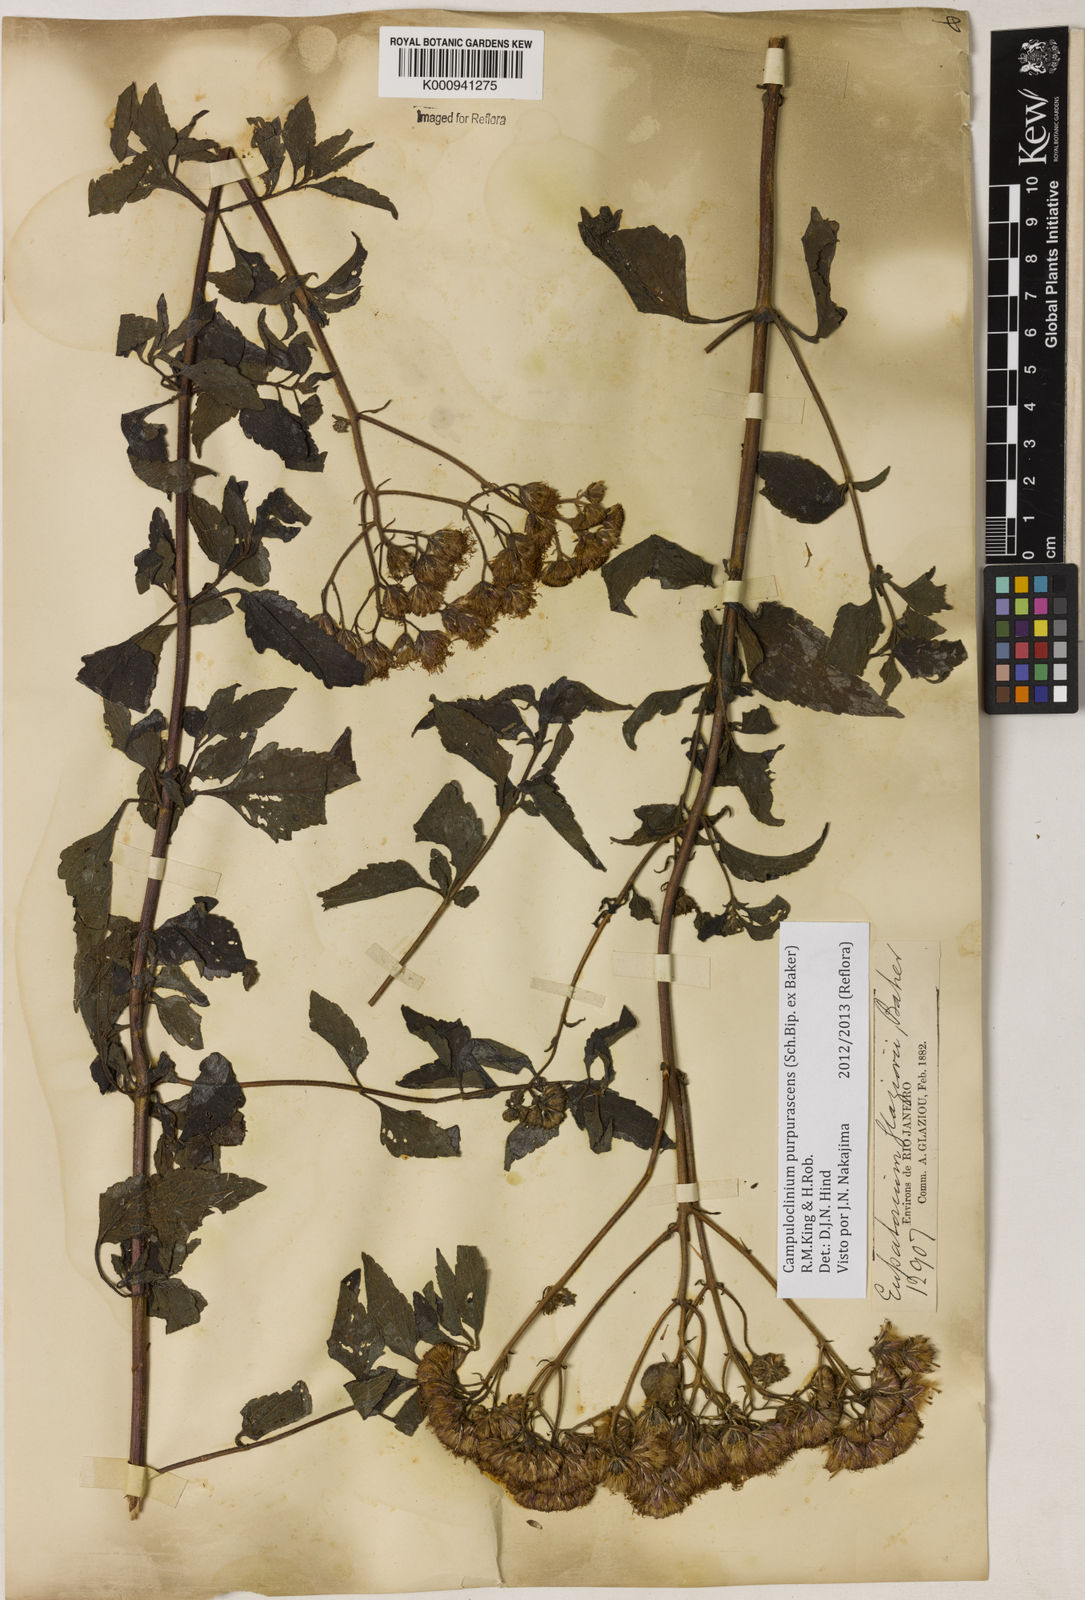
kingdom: Plantae
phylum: Tracheophyta
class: Magnoliopsida
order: Asterales
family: Asteraceae
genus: Campuloclinium
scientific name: Campuloclinium purpurascens
